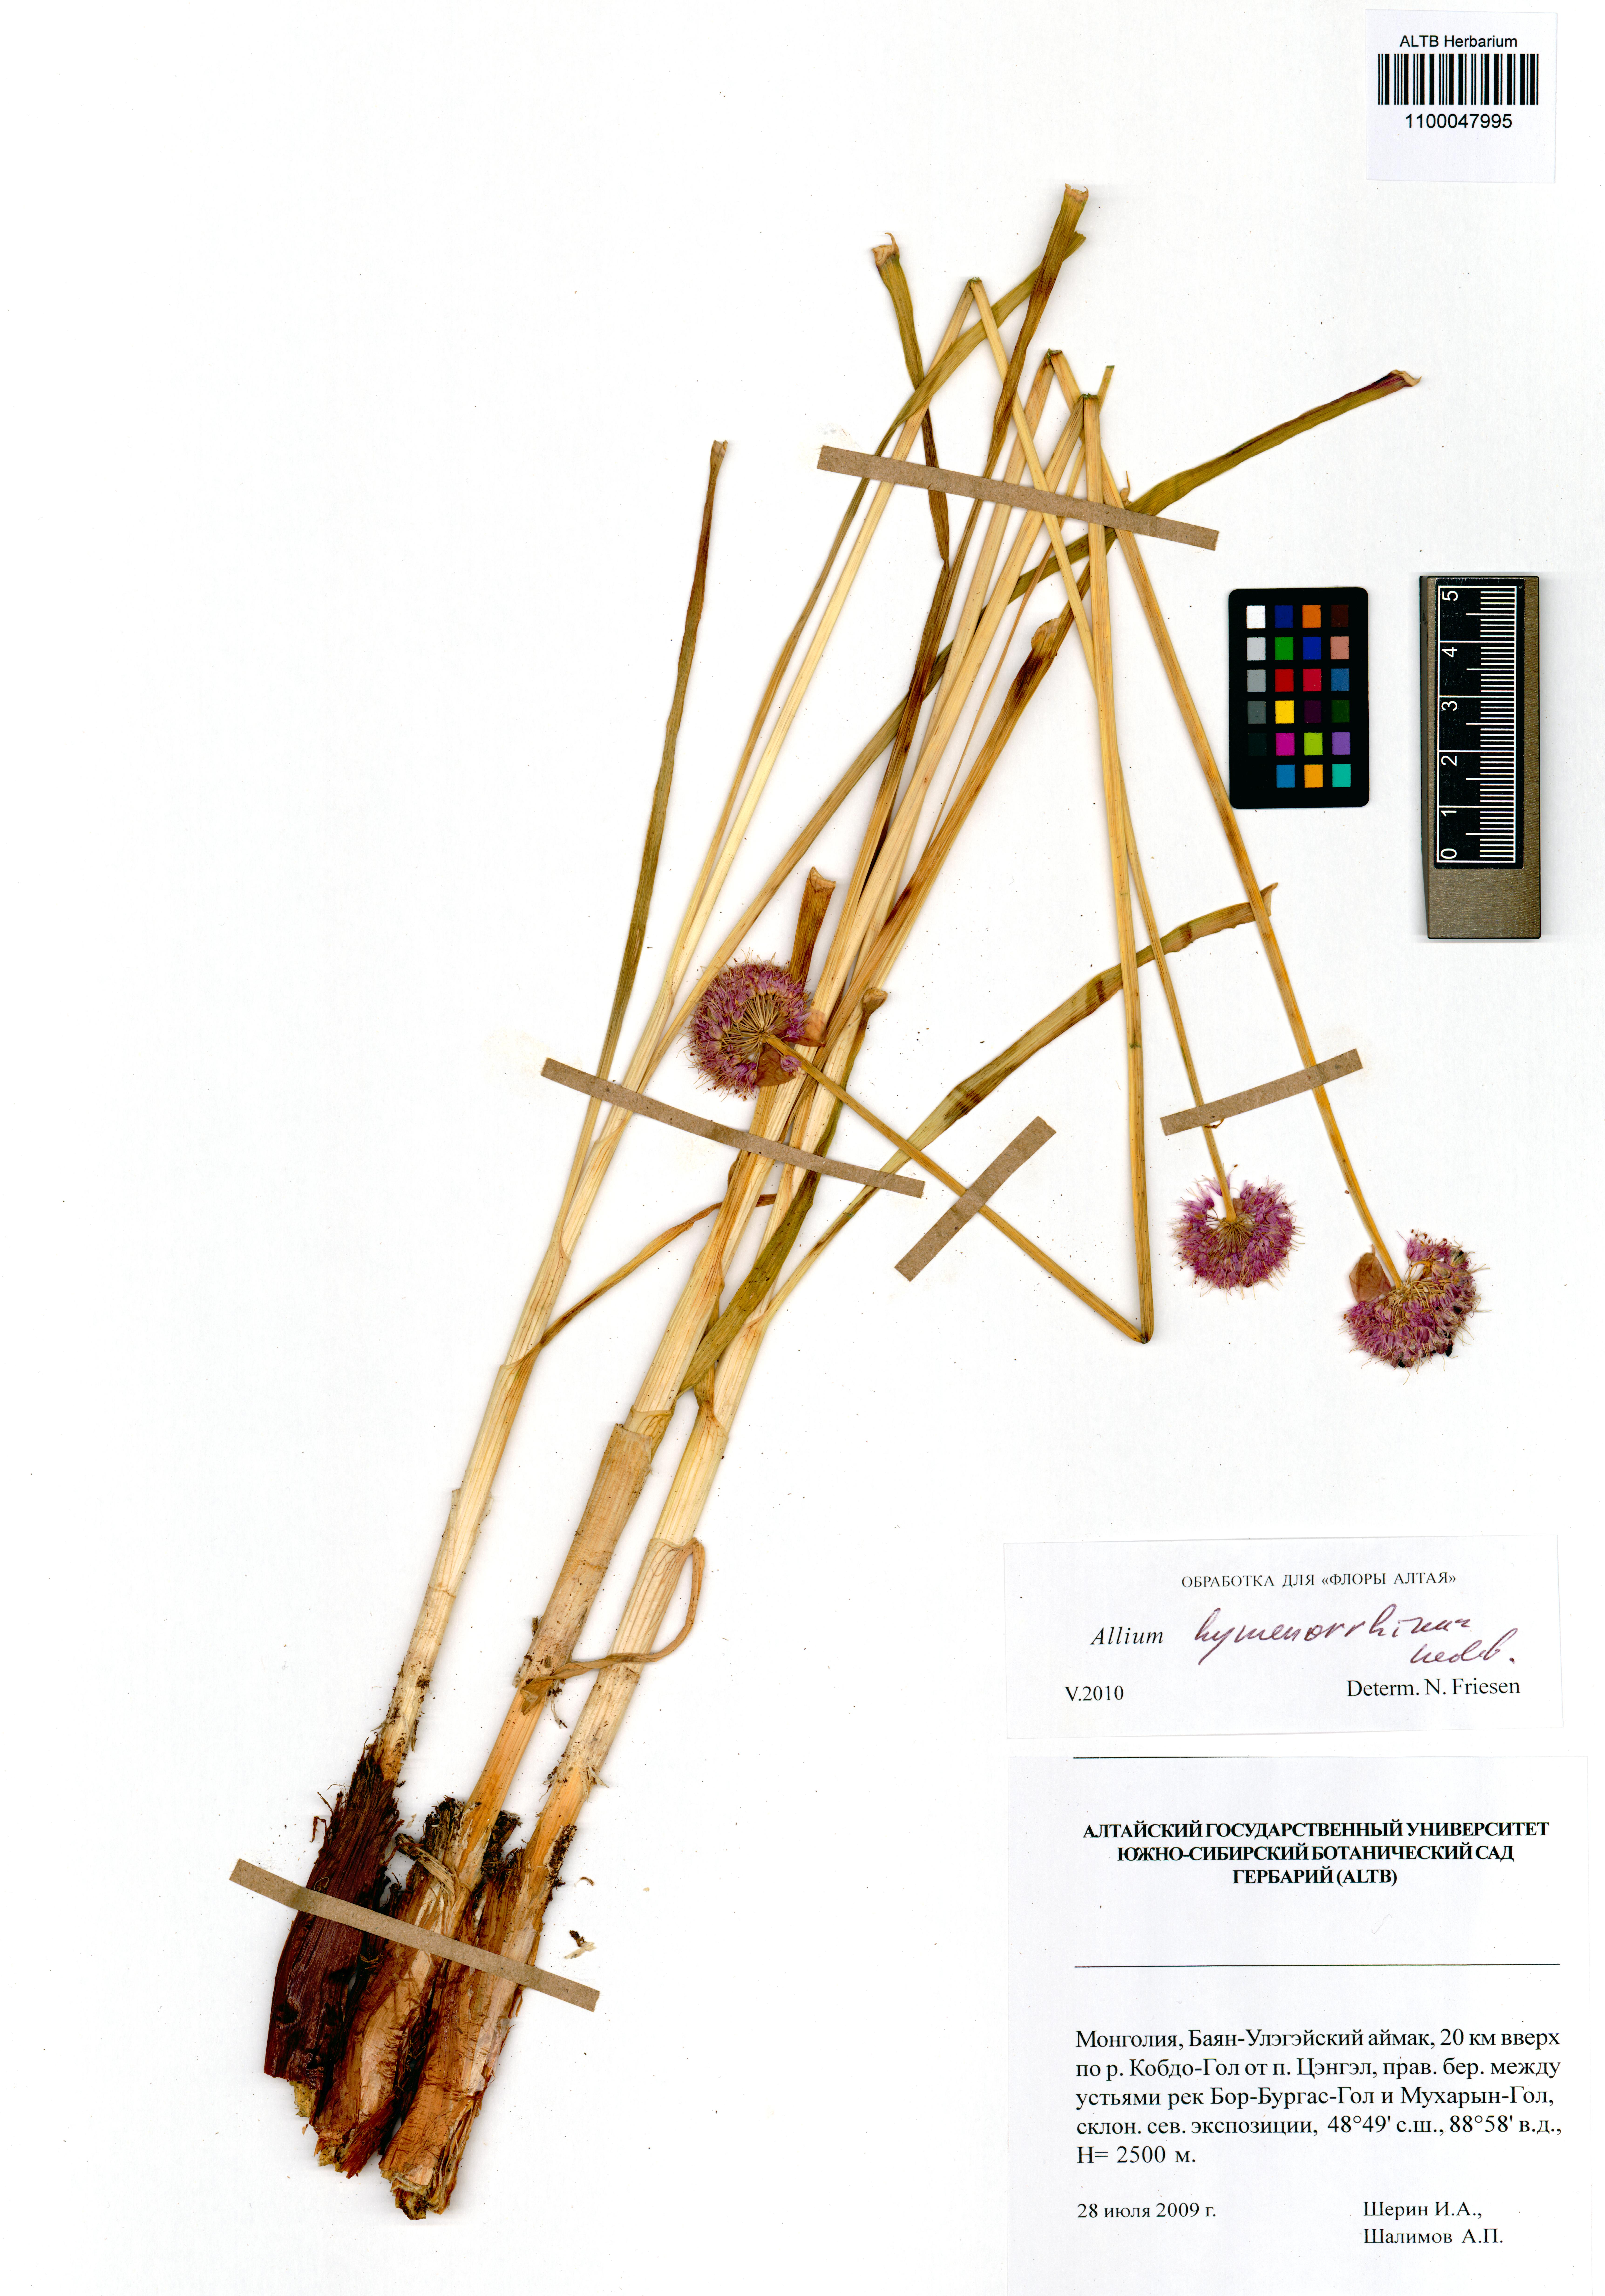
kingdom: Plantae
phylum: Tracheophyta
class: Liliopsida
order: Asparagales
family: Amaryllidaceae
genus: Allium
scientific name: Allium hymenorhizum
